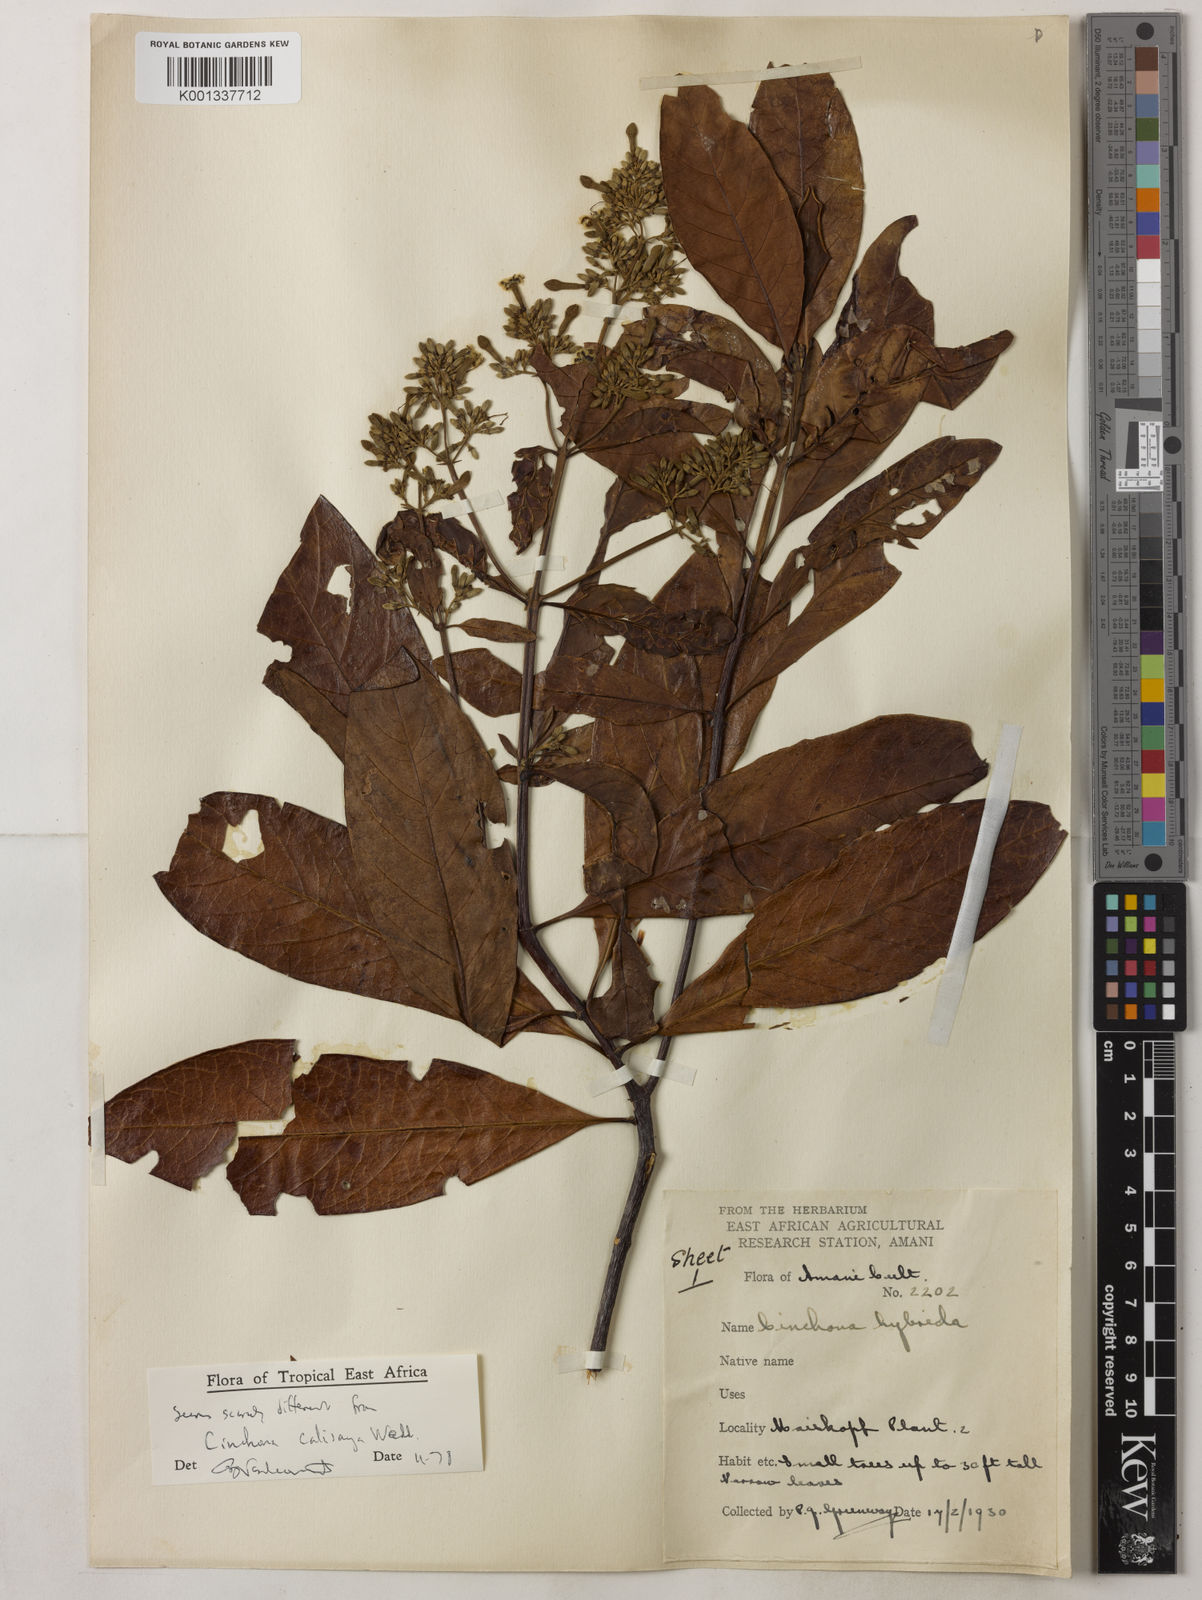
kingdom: Plantae
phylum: Tracheophyta
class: Magnoliopsida
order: Gentianales
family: Rubiaceae
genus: Cinchona
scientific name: Cinchona calisaya
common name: Ledgerbark
